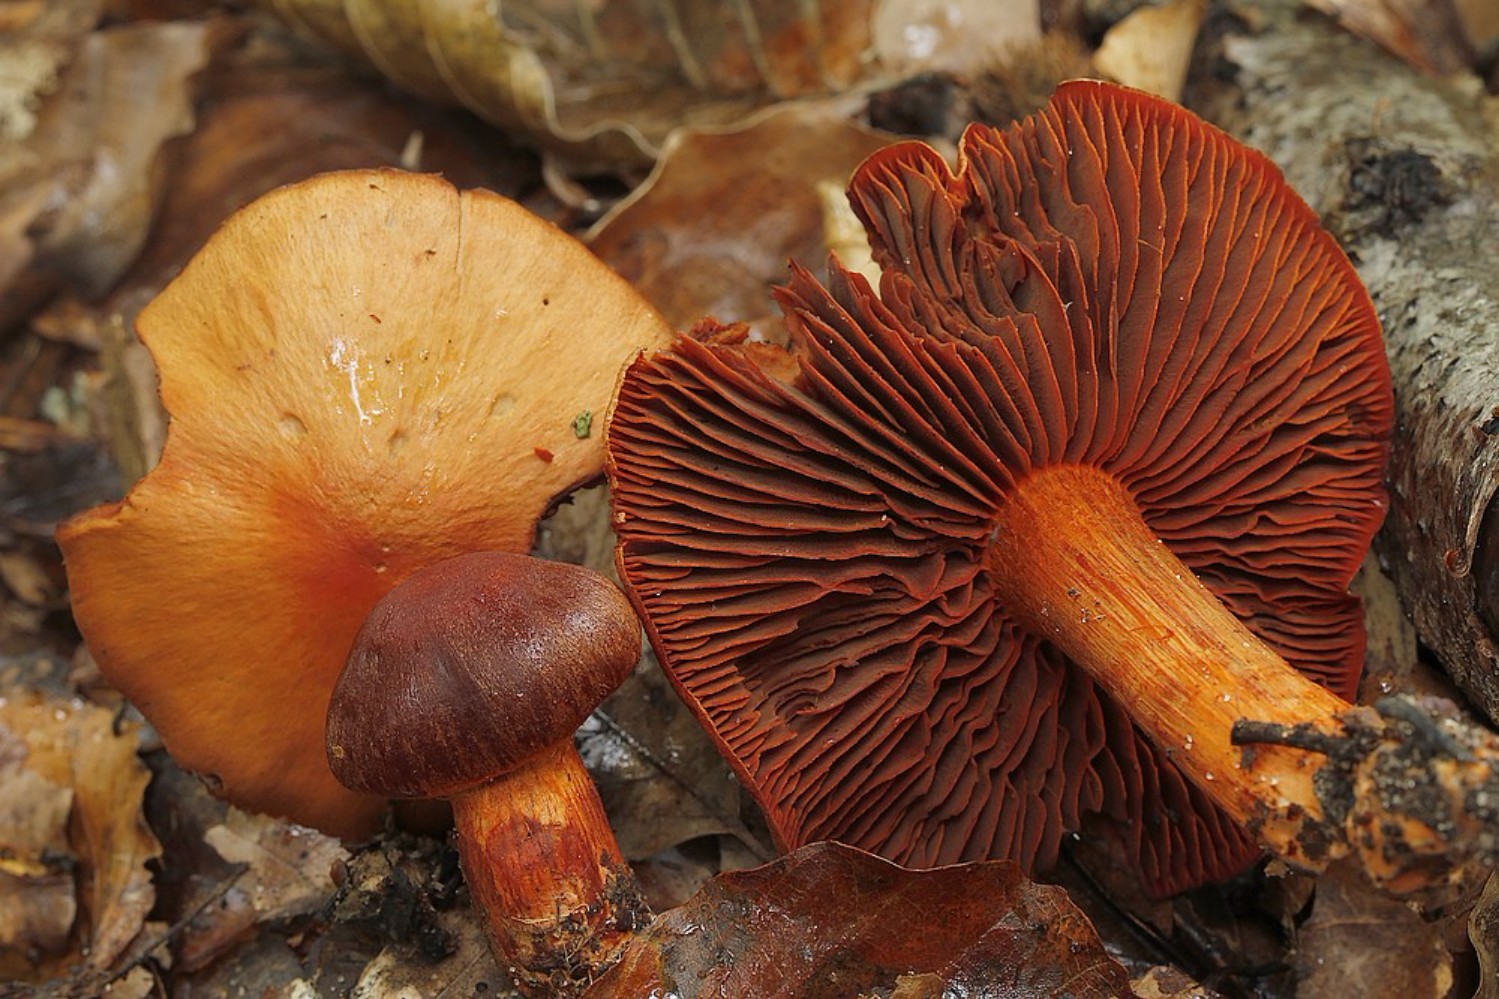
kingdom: Fungi
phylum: Basidiomycota
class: Agaricomycetes
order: Agaricales
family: Cortinariaceae
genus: Cortinarius
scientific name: Cortinarius cinnabarinus
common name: cinnober-slørhat
